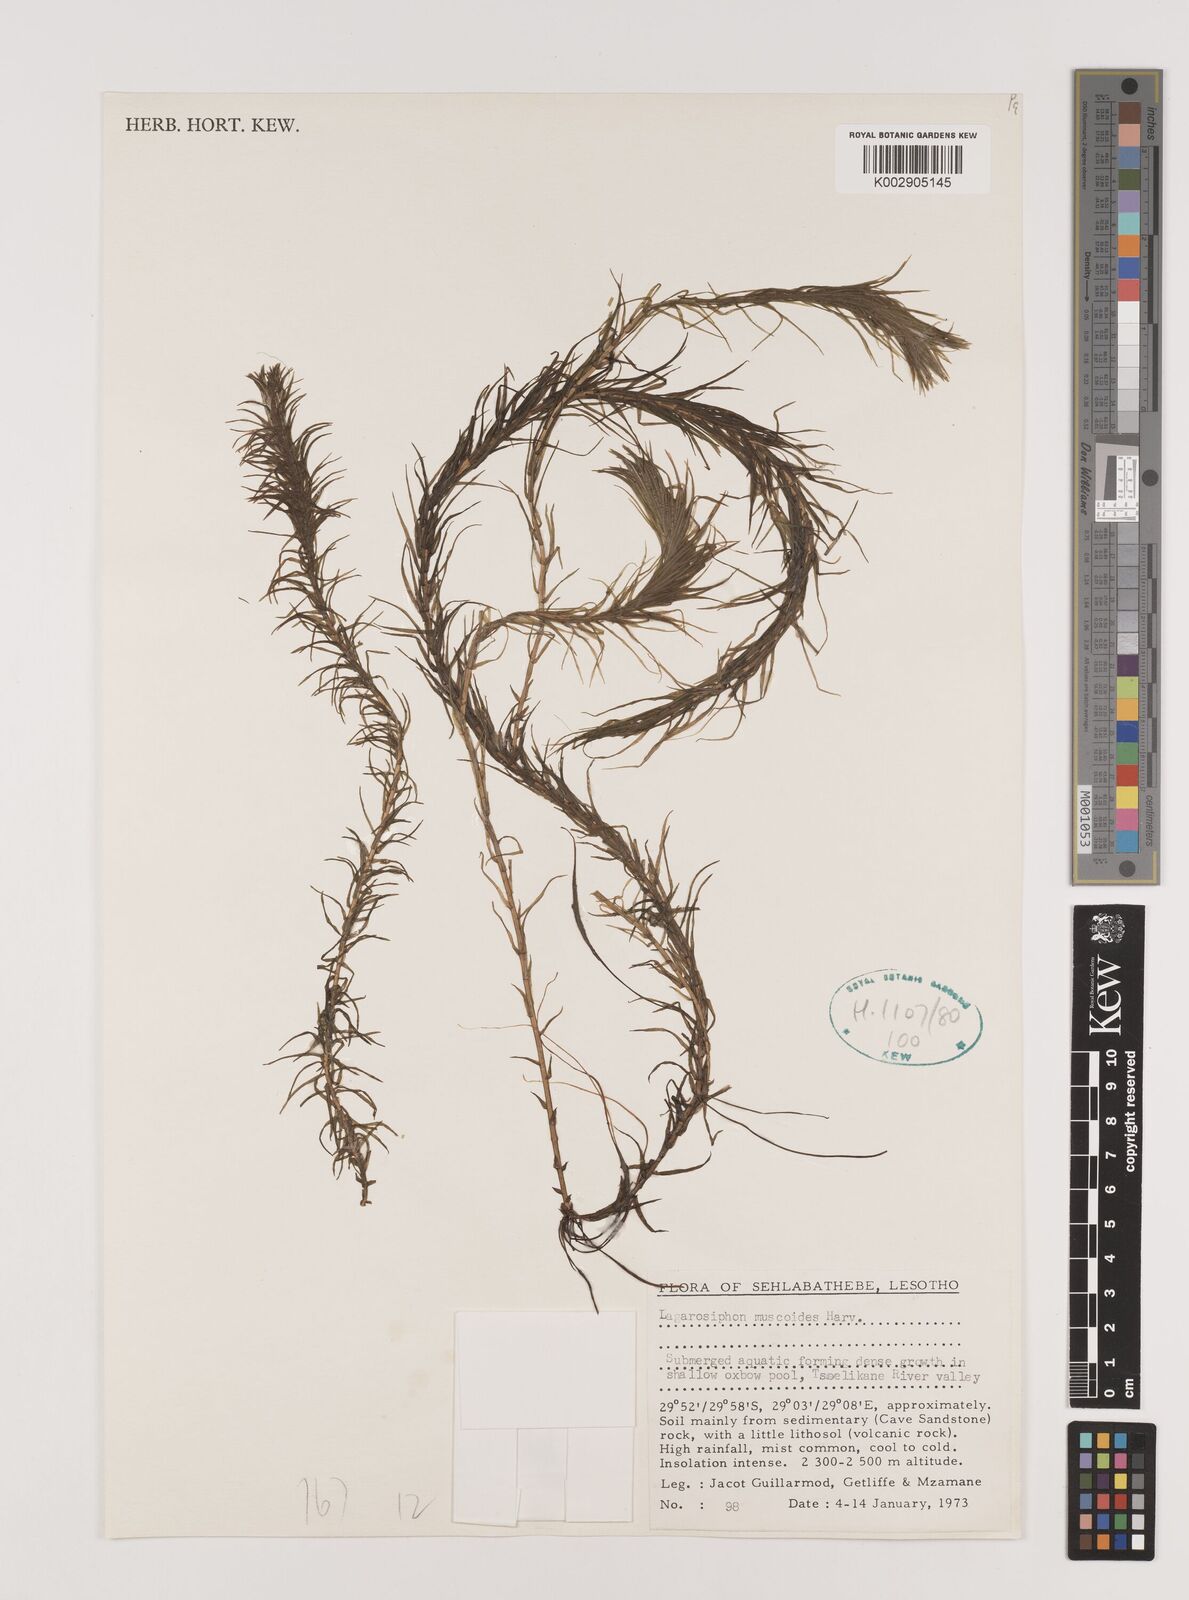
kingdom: Plantae
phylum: Tracheophyta
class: Liliopsida
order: Alismatales
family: Hydrocharitaceae
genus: Lagarosiphon
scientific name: Lagarosiphon muscoides
